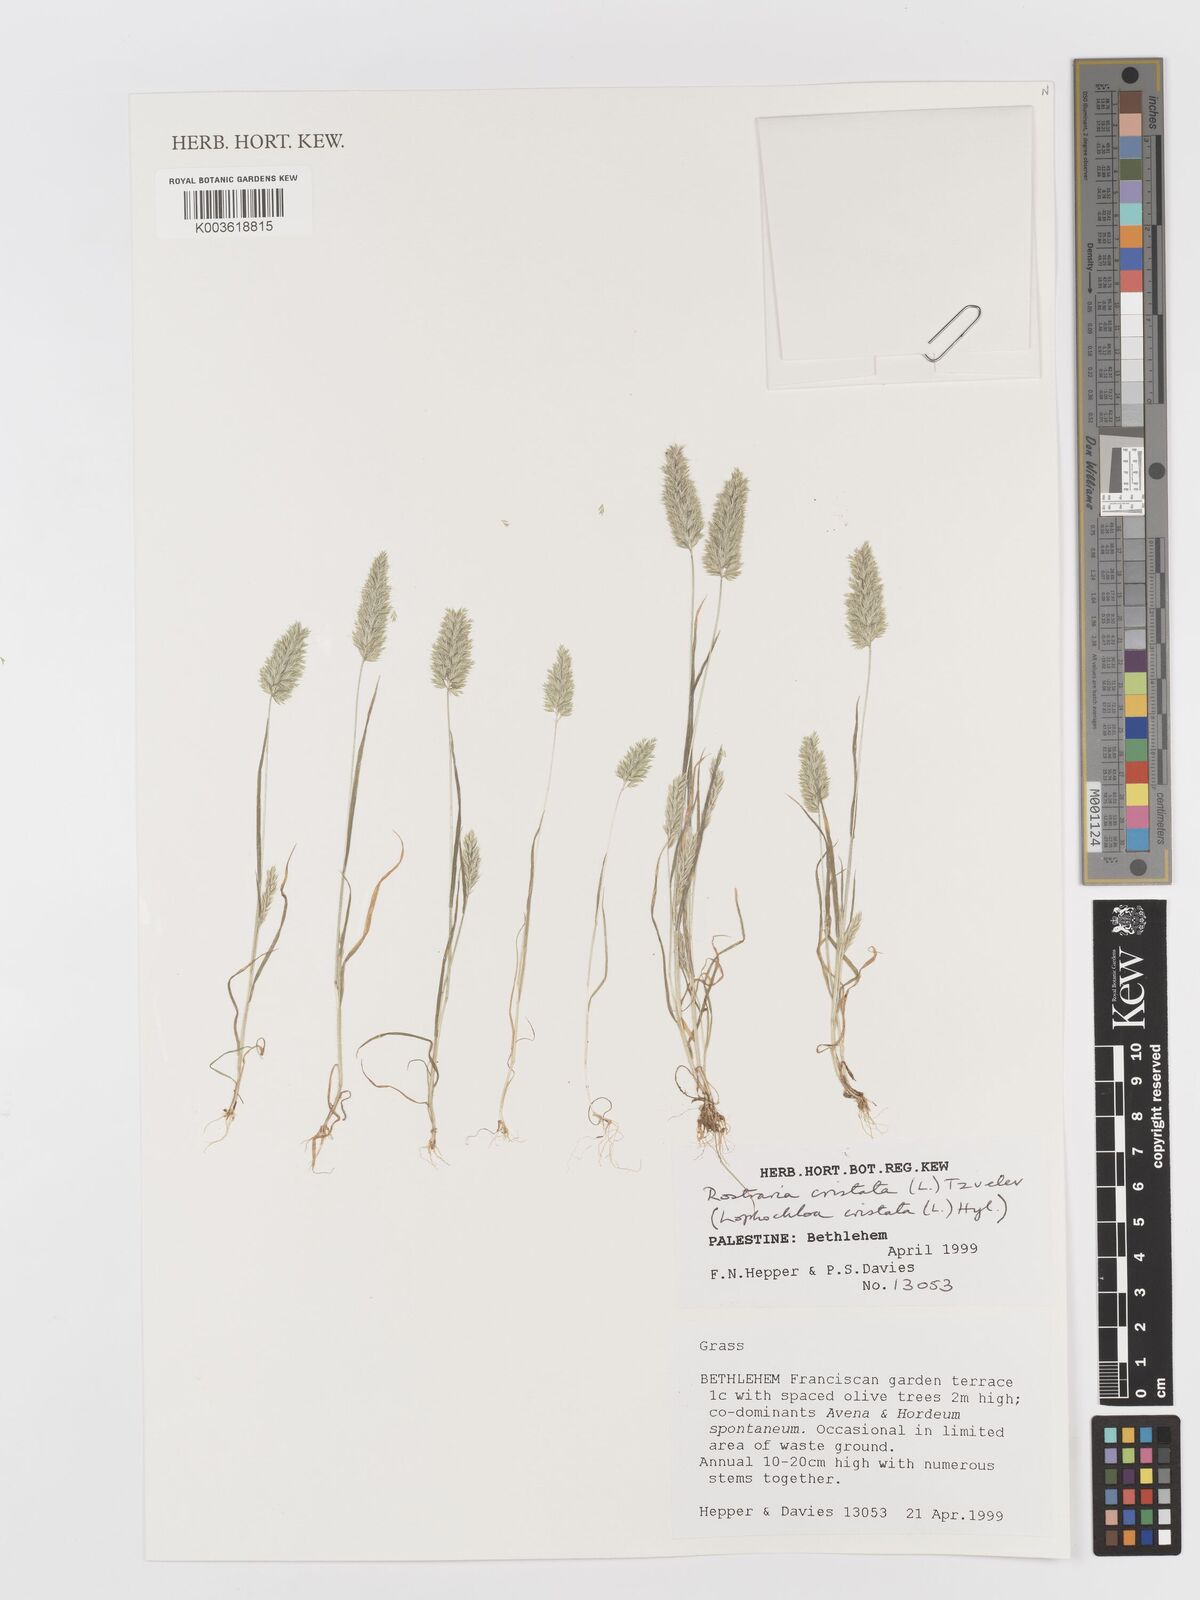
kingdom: Plantae
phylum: Tracheophyta
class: Liliopsida
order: Poales
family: Poaceae
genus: Rostraria
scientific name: Rostraria cristata
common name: Mediterranean hair-grass
